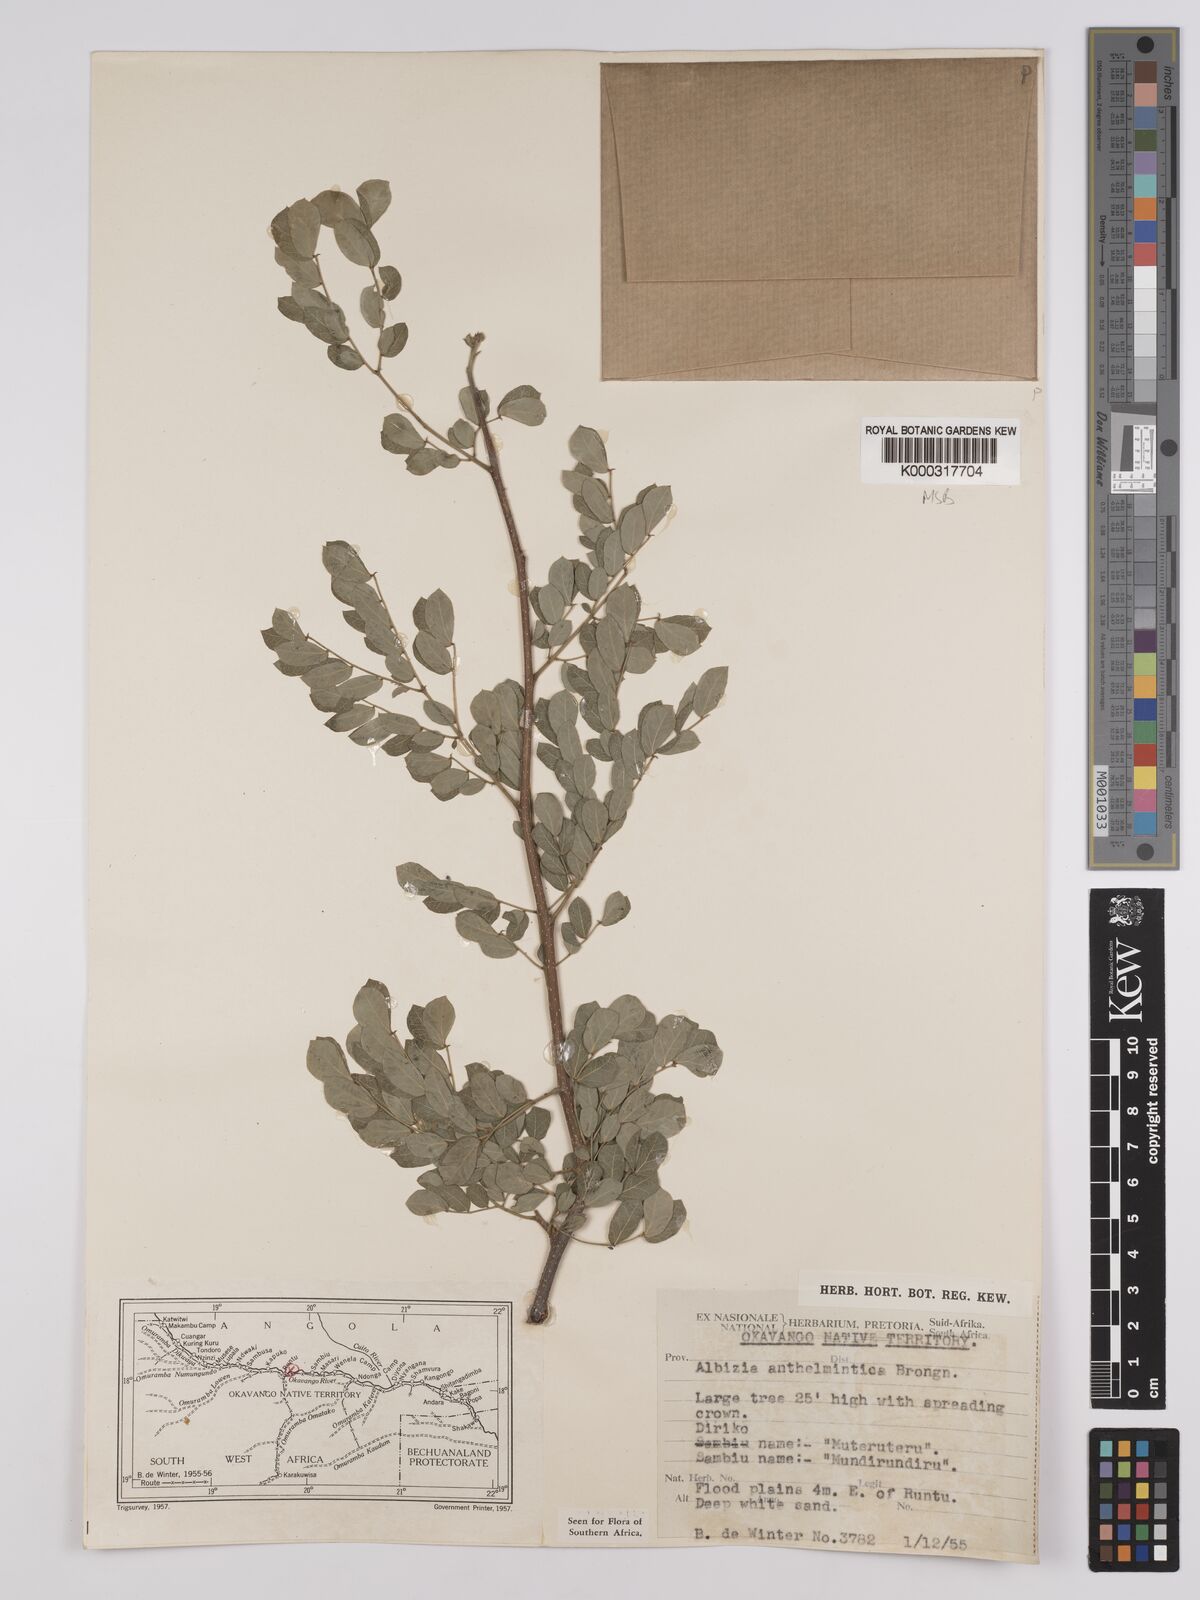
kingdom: Plantae
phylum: Tracheophyta
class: Magnoliopsida
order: Fabales
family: Fabaceae
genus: Albizia
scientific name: Albizia anthelmintica
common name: Worm-bark false-thorn
